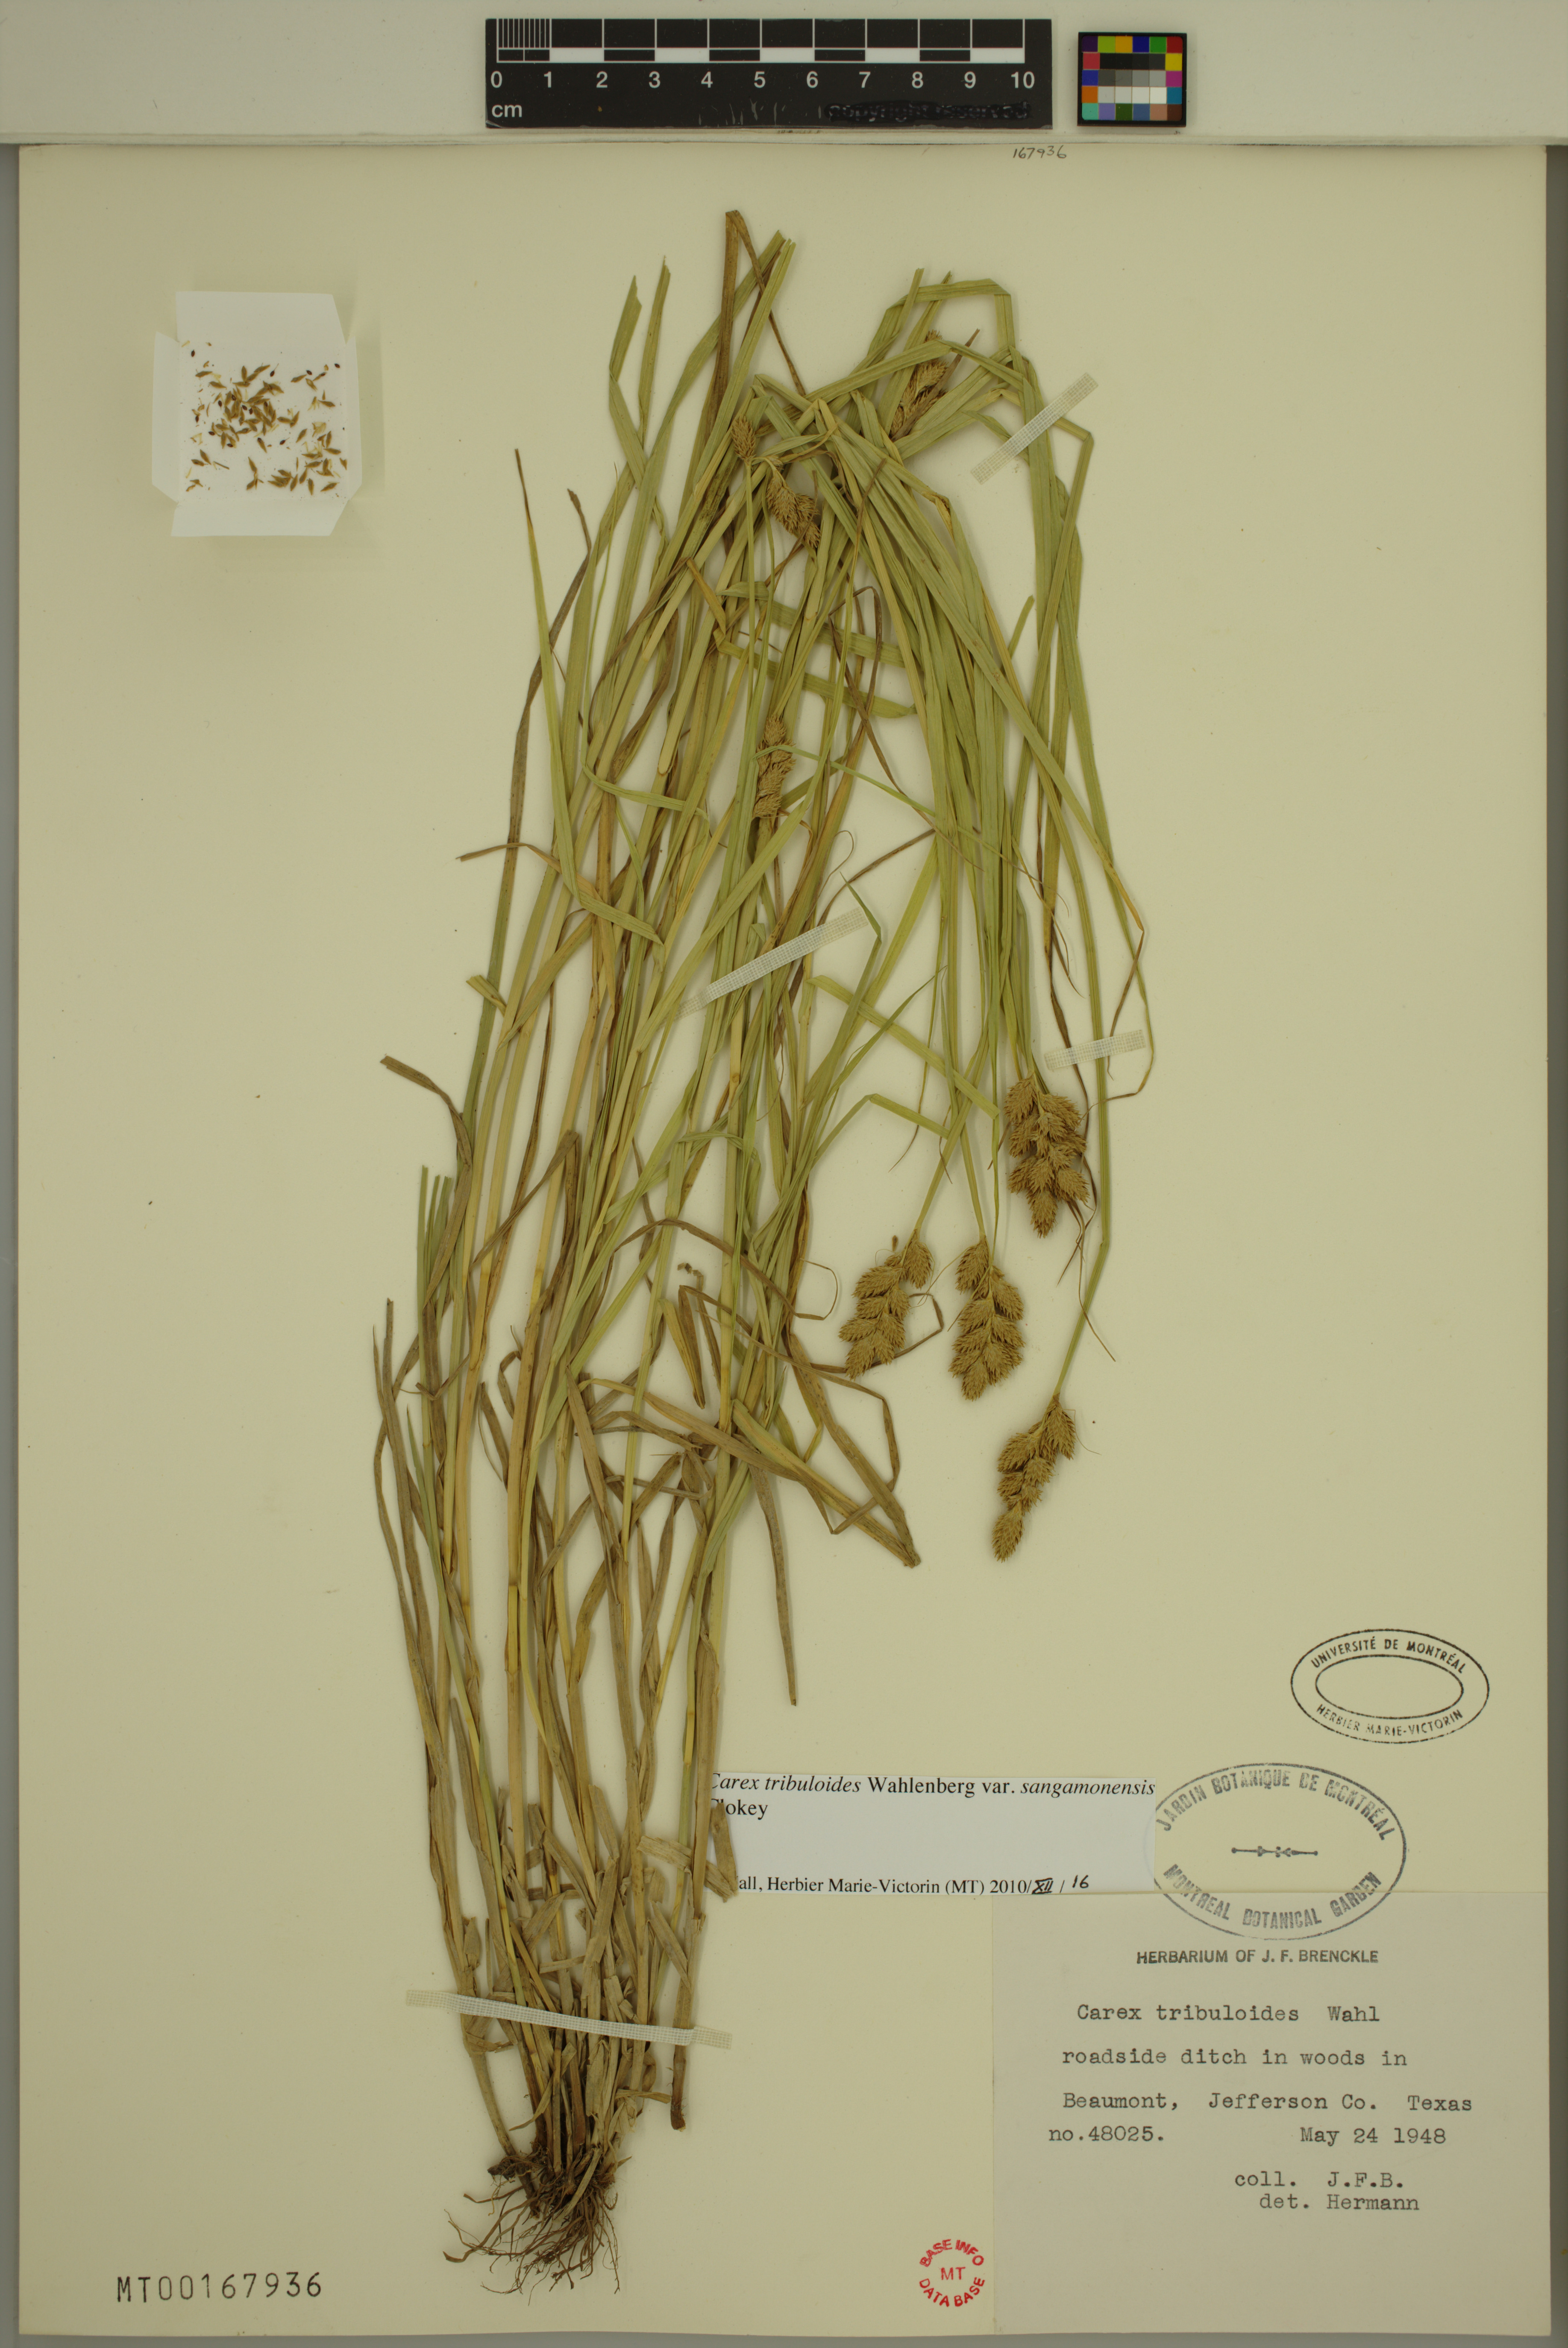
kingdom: Plantae
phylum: Tracheophyta
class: Liliopsida
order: Poales
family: Cyperaceae
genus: Carex
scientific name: Carex tribuloides
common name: Blunt broom sedge
